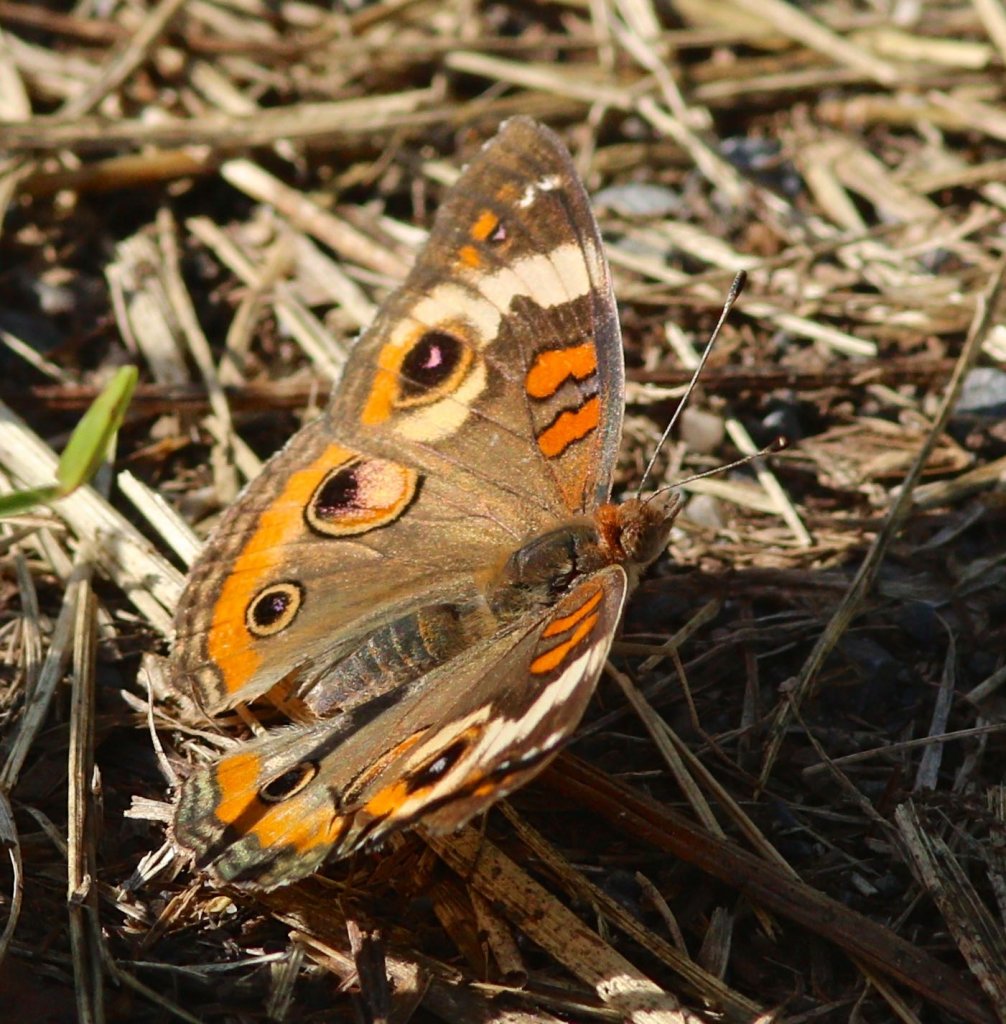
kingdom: Animalia
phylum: Arthropoda
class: Insecta
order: Lepidoptera
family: Nymphalidae
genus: Junonia
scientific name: Junonia coenia
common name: Common Buckeye
